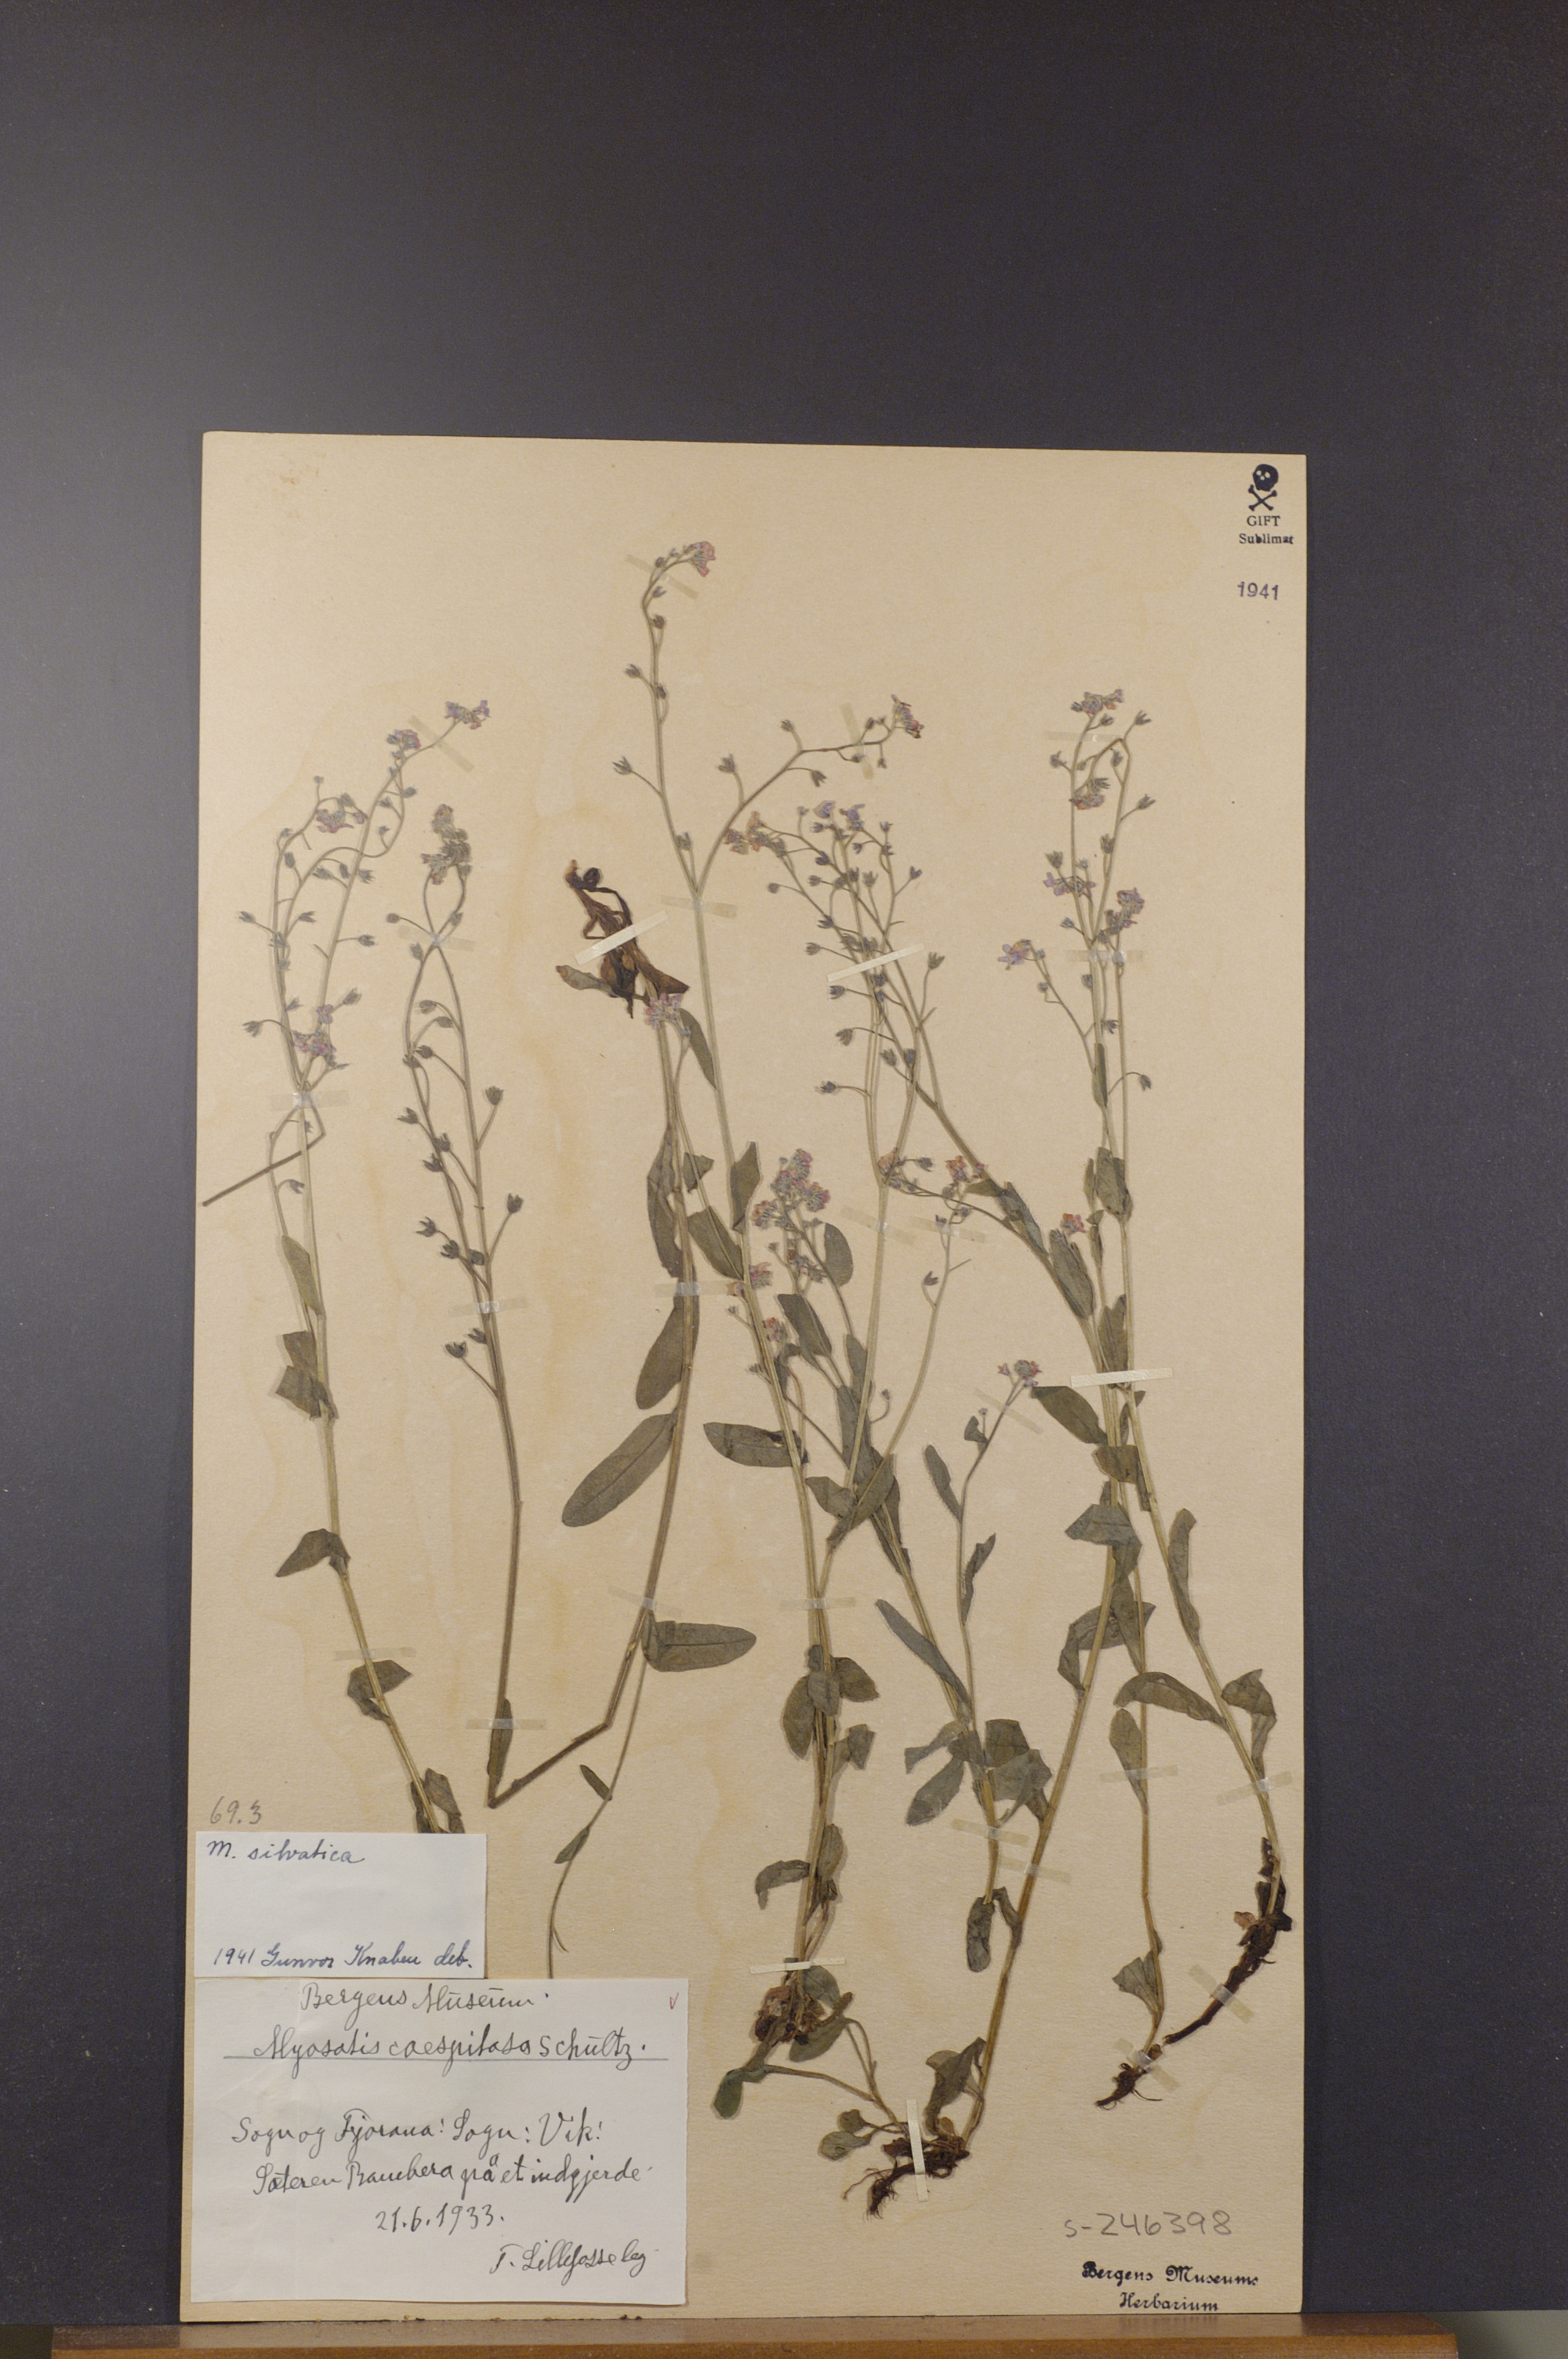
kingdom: Plantae
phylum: Tracheophyta
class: Magnoliopsida
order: Boraginales
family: Boraginaceae
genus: Myosotis
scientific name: Myosotis decumbens
